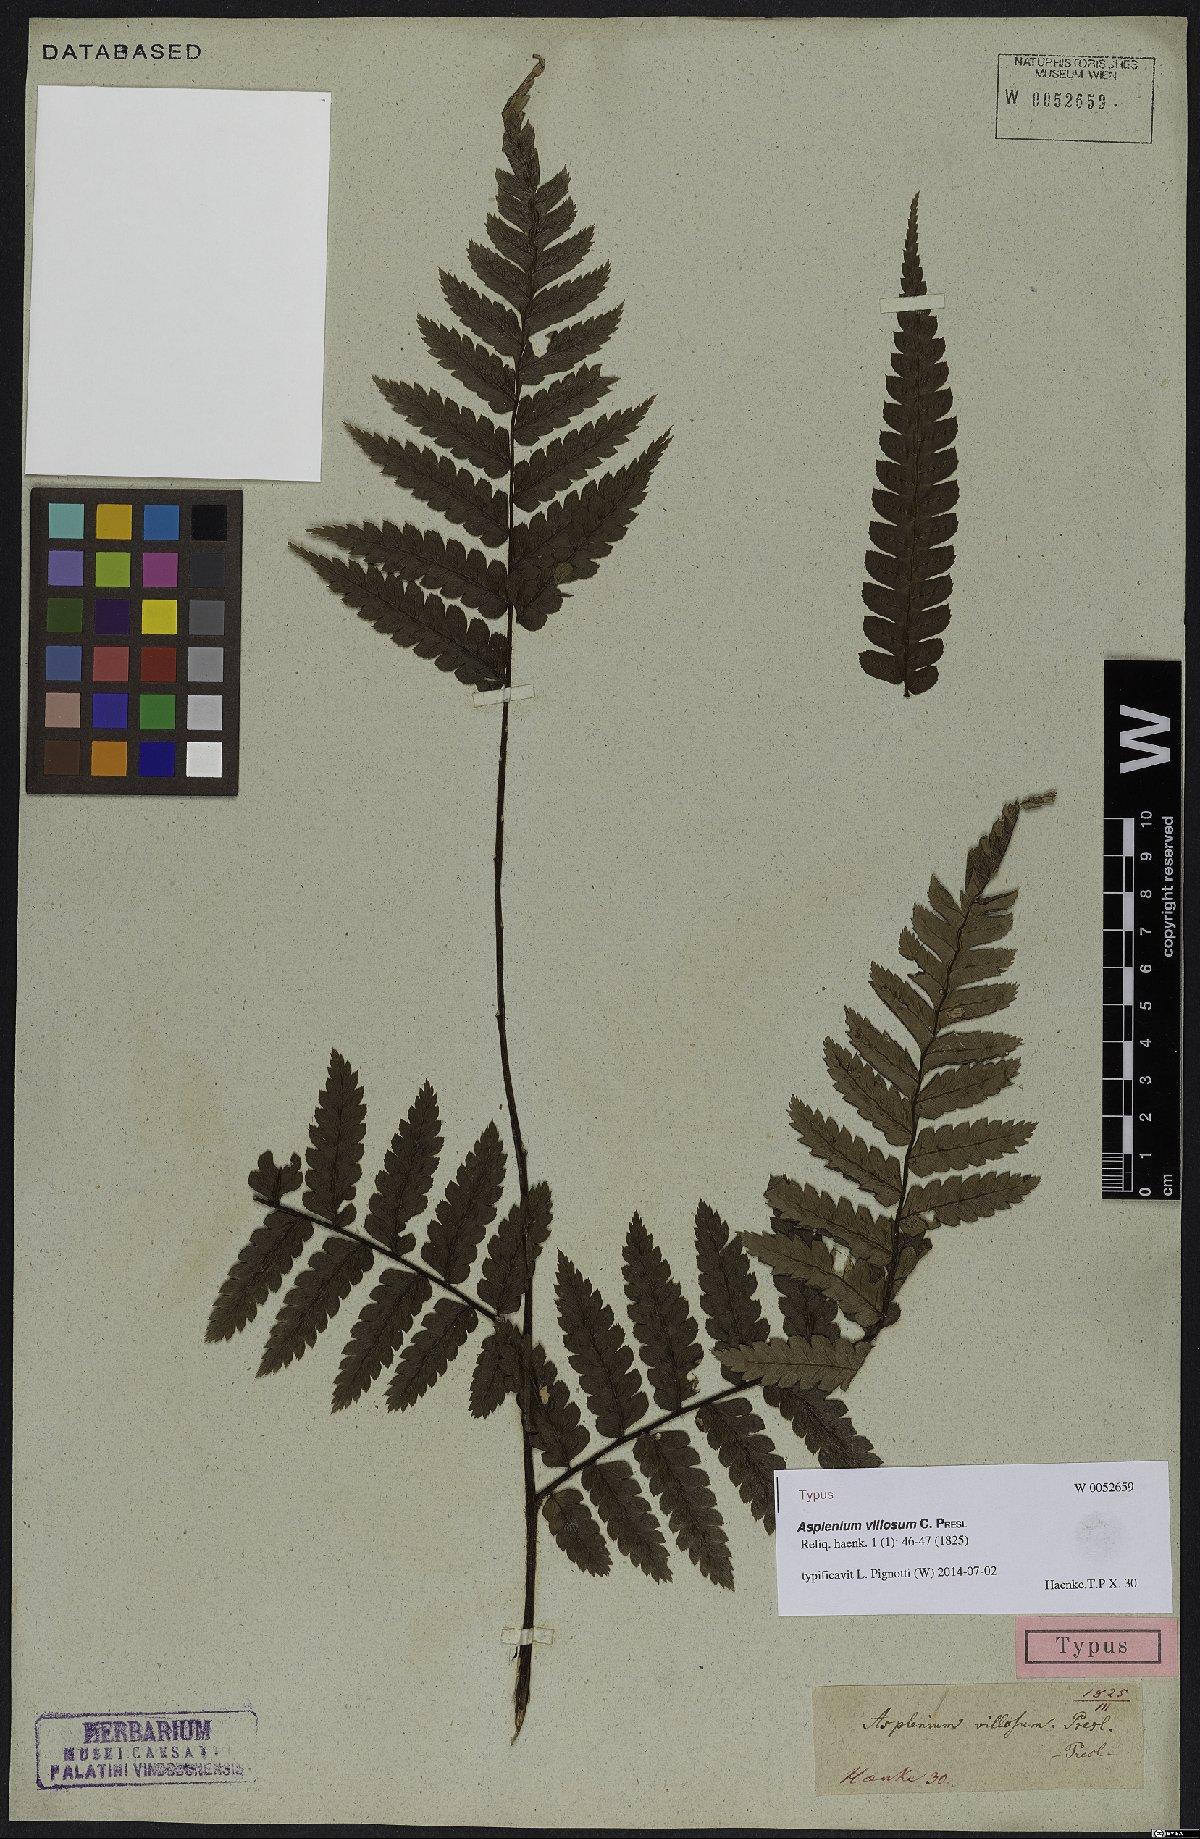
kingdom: Plantae
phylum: Tracheophyta
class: Polypodiopsida
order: Polypodiales
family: Athyriaceae
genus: Diplazium
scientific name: Diplazium urticifolium
